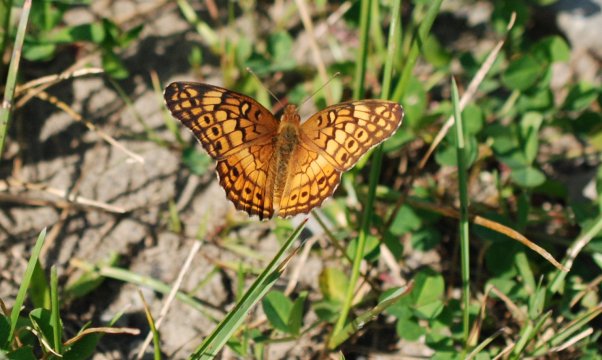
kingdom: Animalia
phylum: Arthropoda
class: Insecta
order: Lepidoptera
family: Nymphalidae
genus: Euptoieta
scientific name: Euptoieta claudia
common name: Variegated Fritillary
